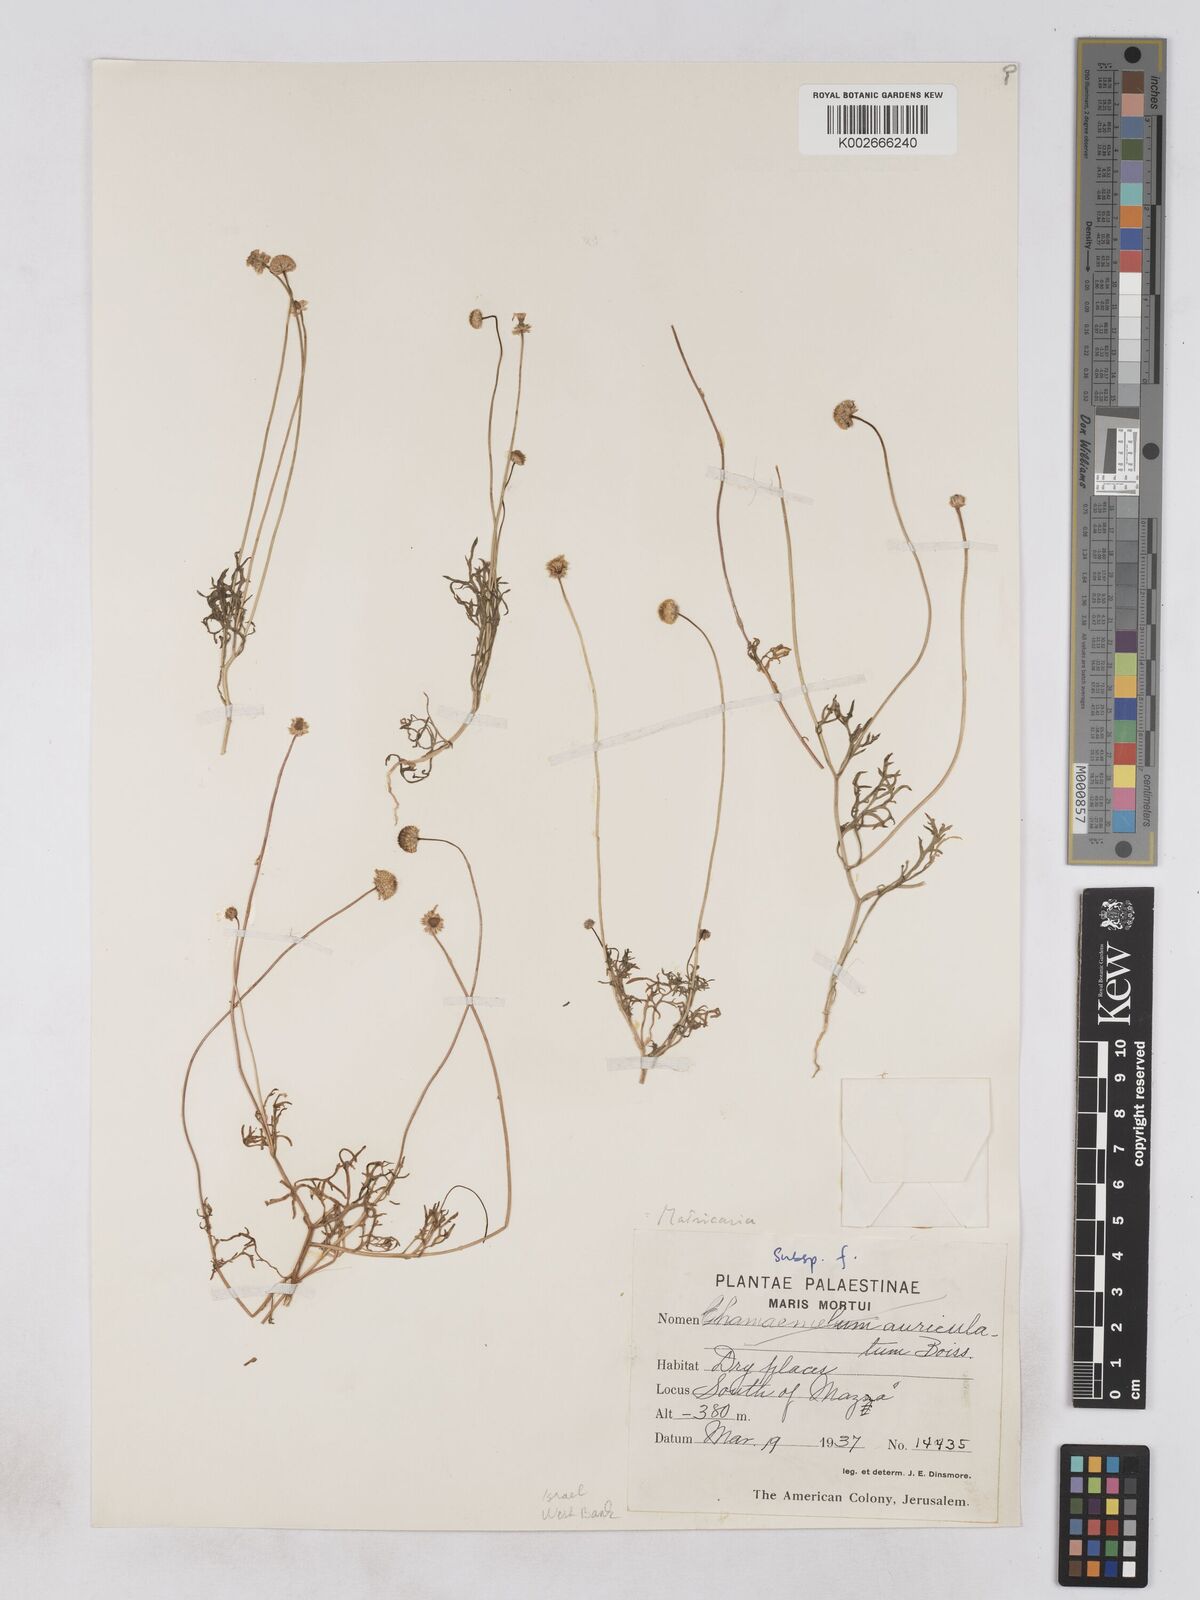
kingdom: Plantae
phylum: Tracheophyta
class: Magnoliopsida
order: Asterales
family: Asteraceae
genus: Otoglyphis
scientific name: Otoglyphis factorovskyi
